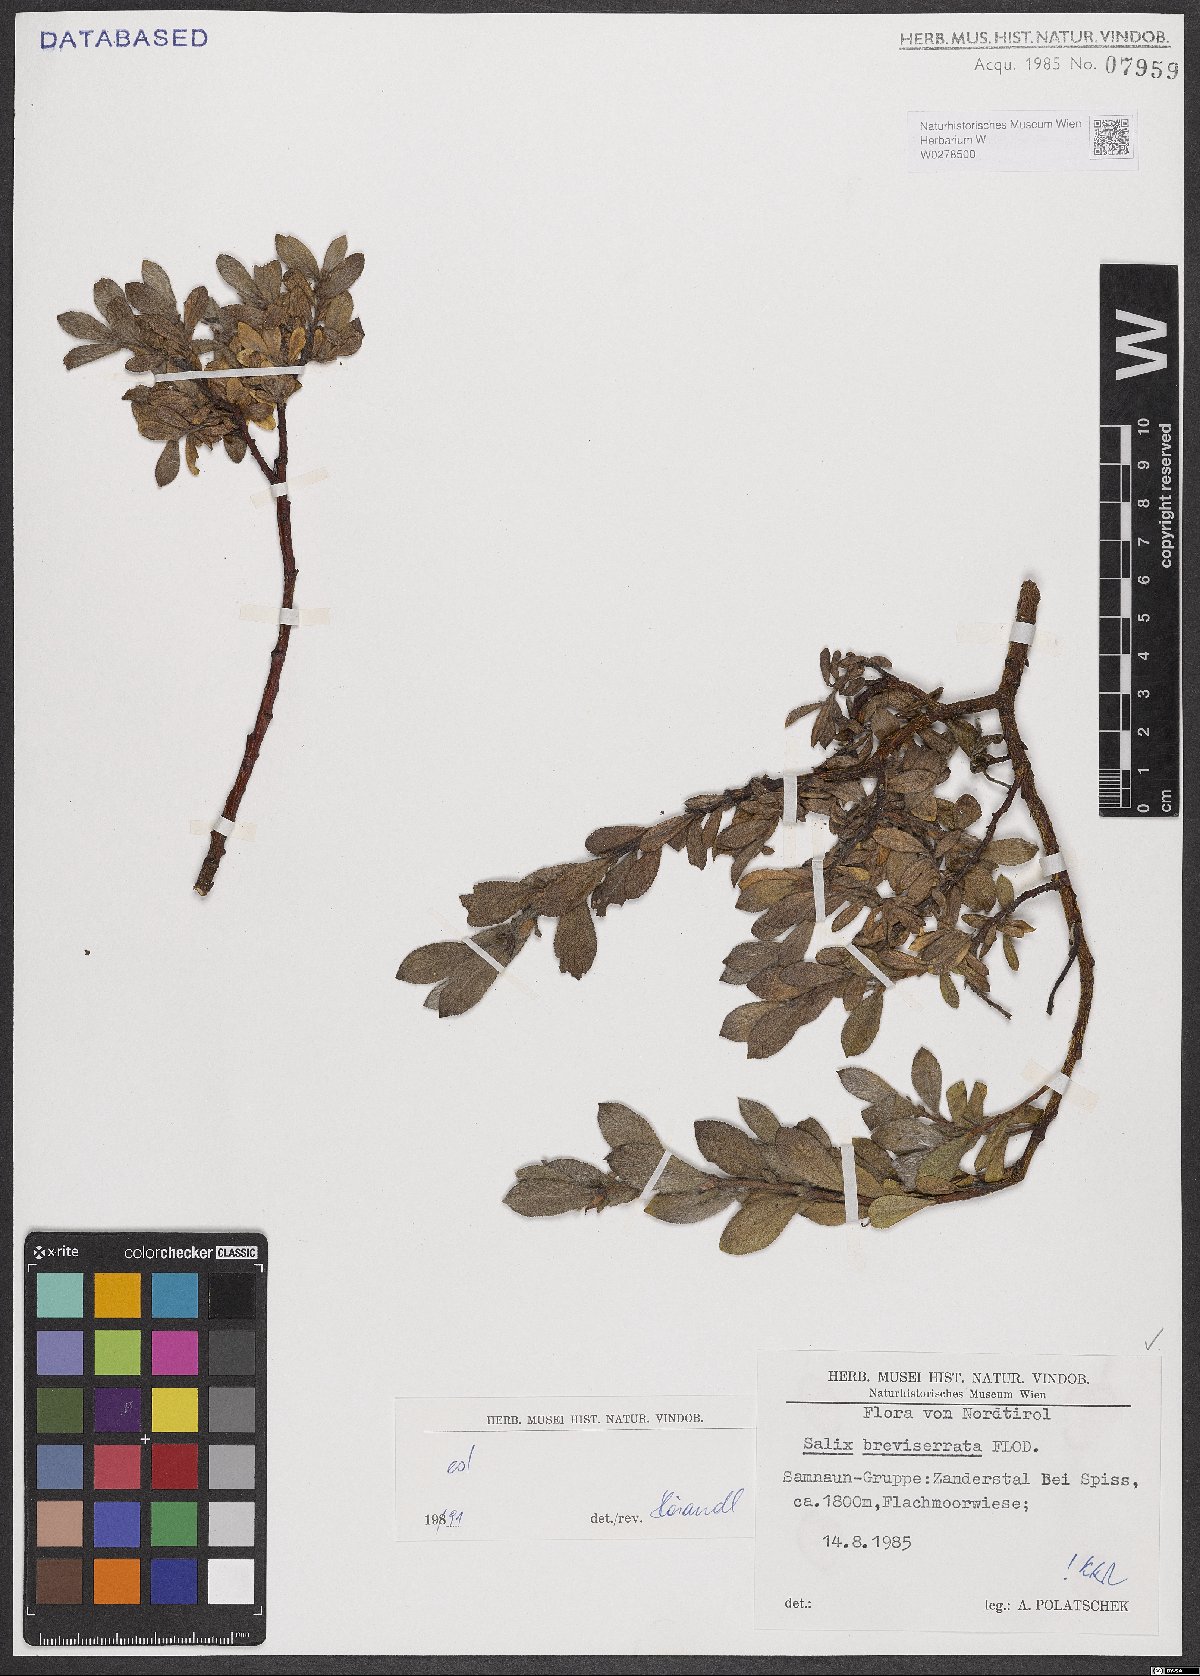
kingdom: Plantae
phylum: Tracheophyta
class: Magnoliopsida
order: Malpighiales
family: Salicaceae
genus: Salix
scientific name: Salix breviserrata
